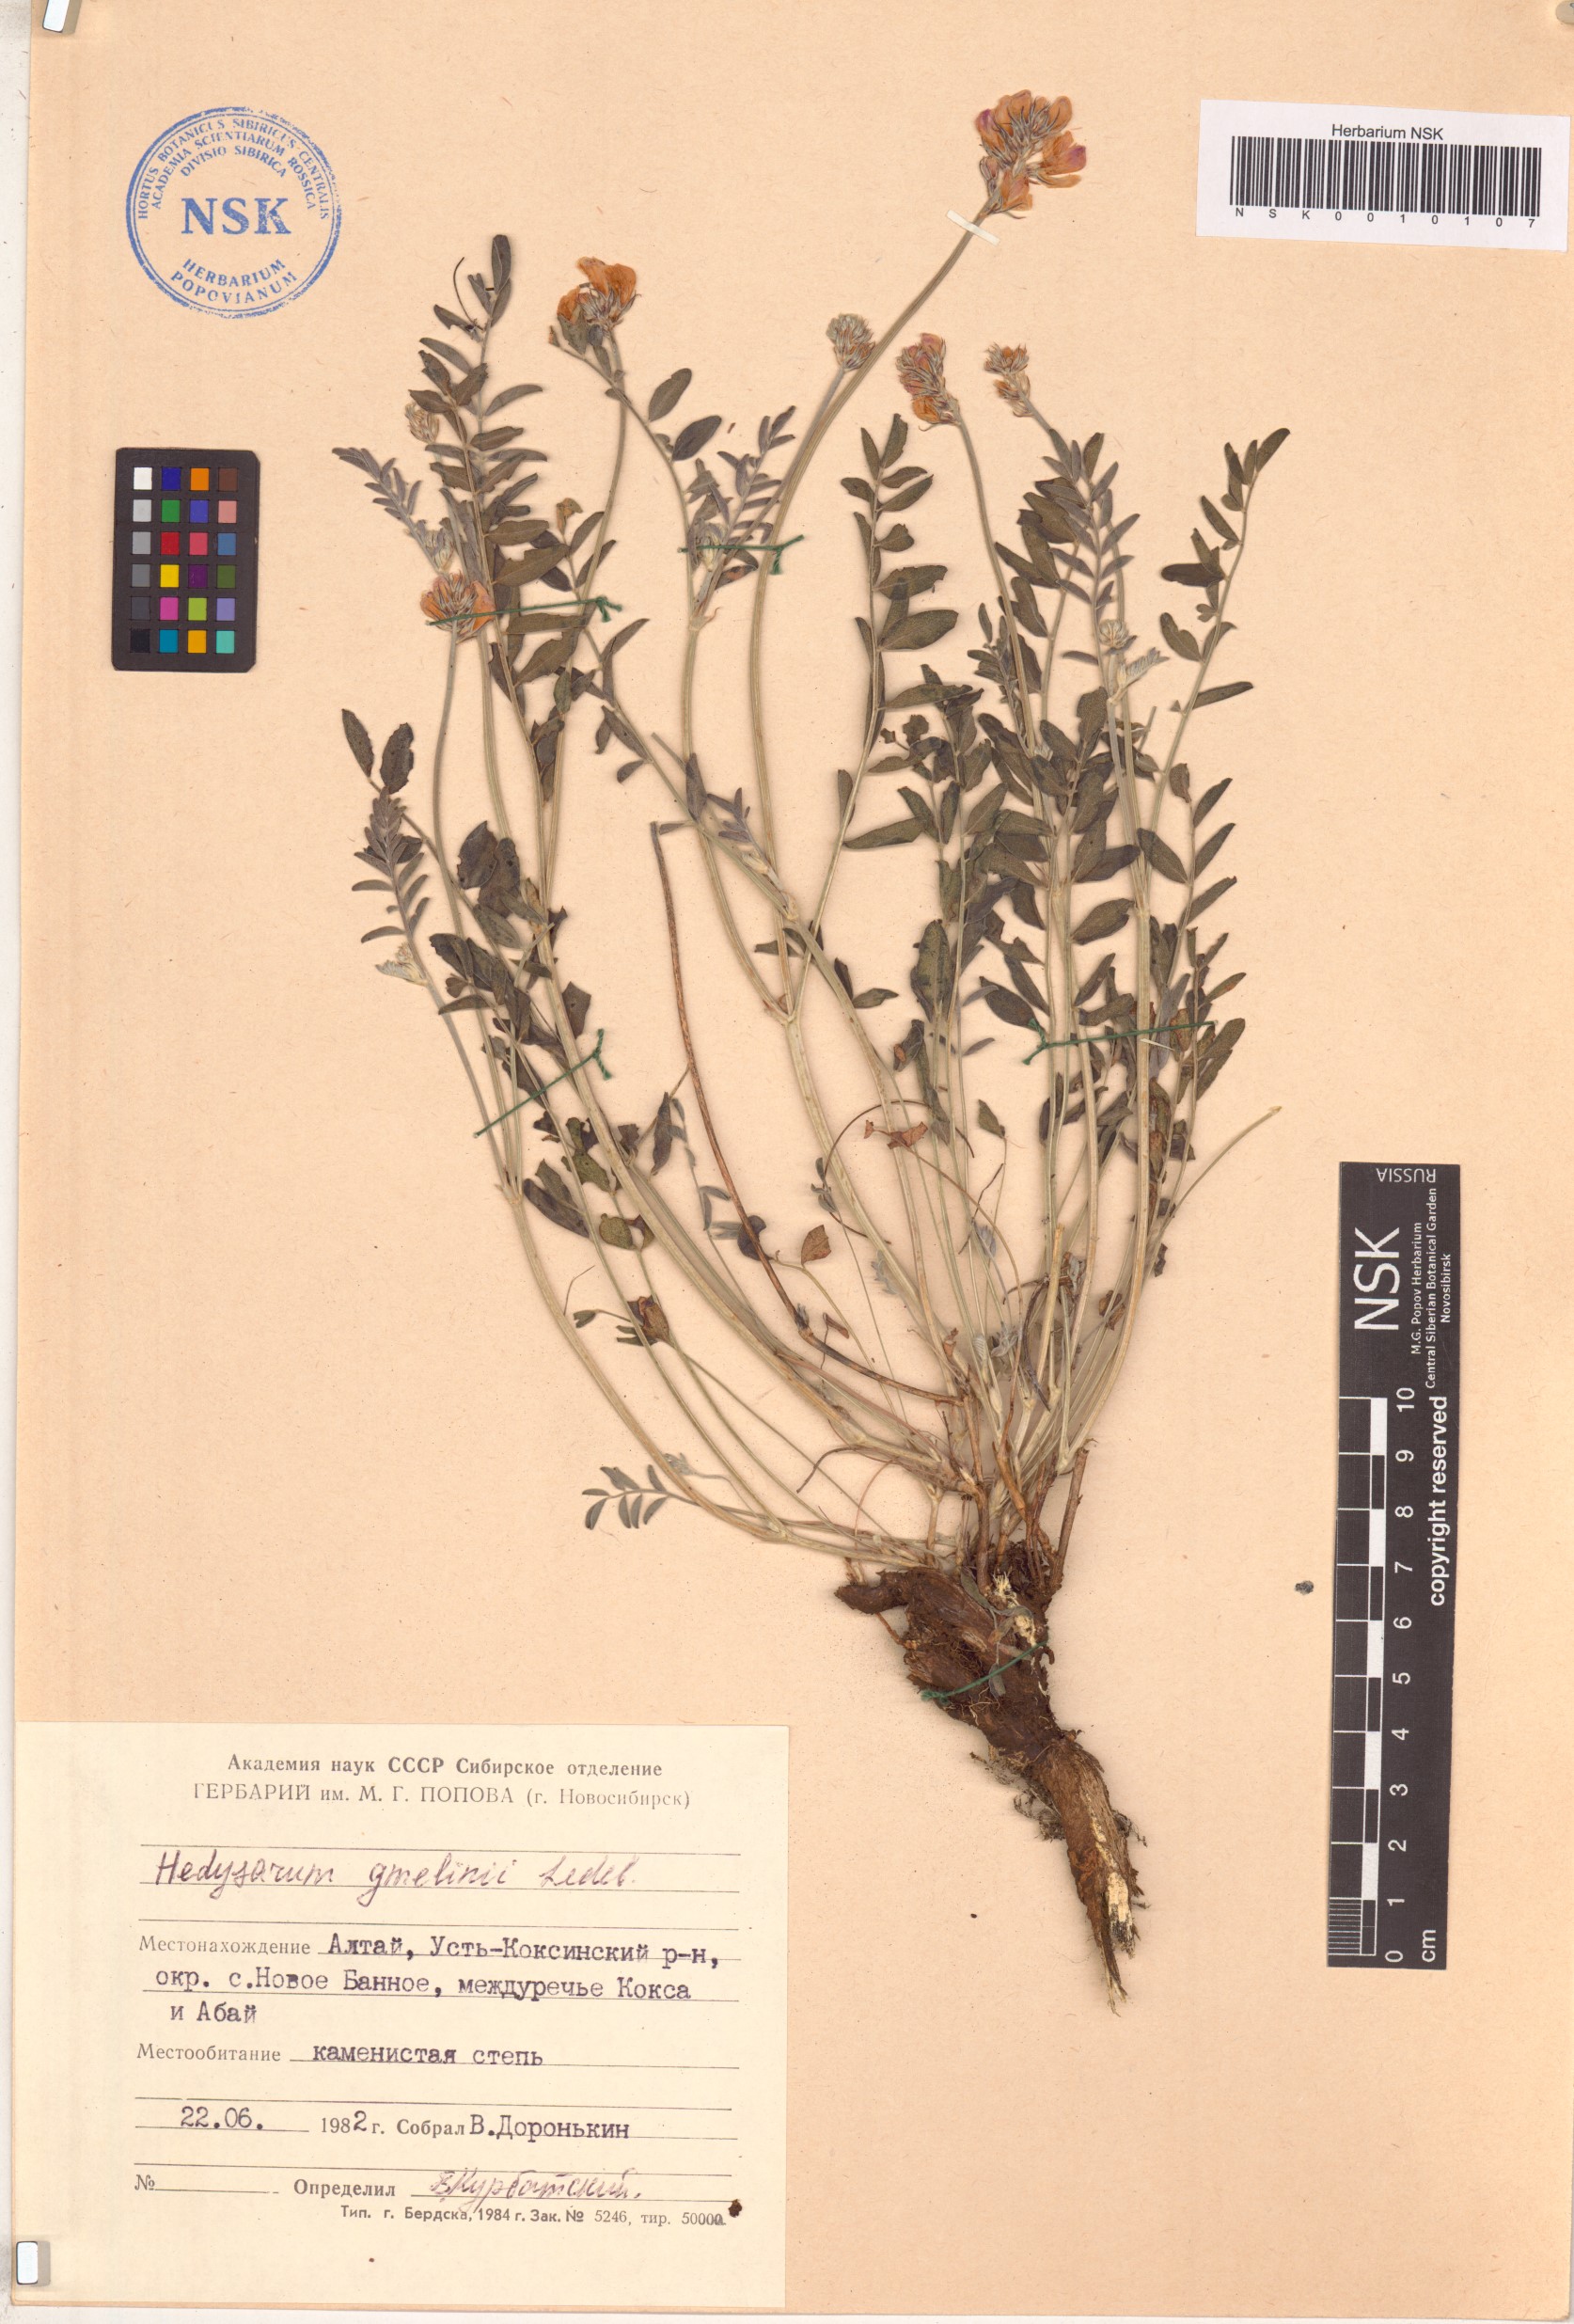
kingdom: Plantae
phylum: Tracheophyta
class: Magnoliopsida
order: Fabales
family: Fabaceae
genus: Hedysarum
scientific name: Hedysarum gmelinii
